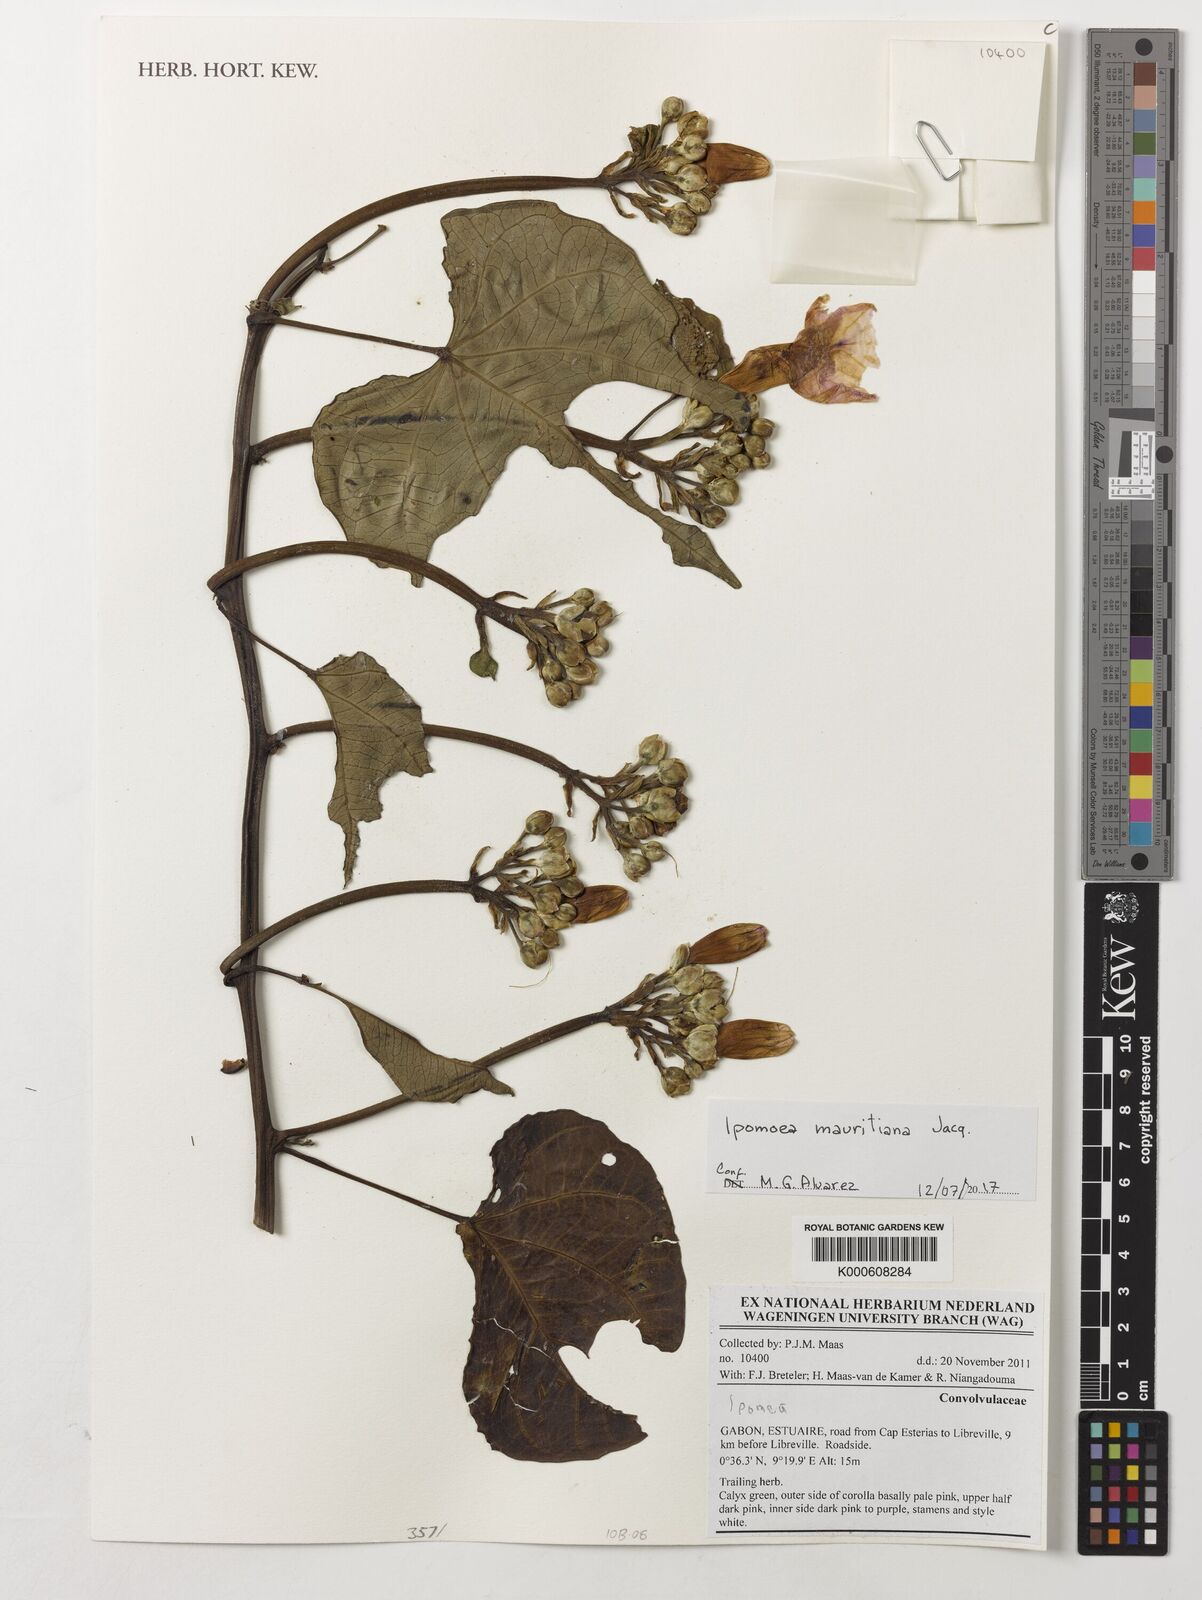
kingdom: Plantae
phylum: Tracheophyta
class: Magnoliopsida
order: Solanales
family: Convolvulaceae
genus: Ipomoea
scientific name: Ipomoea mauritiana
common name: Mauritanian convolvulus
